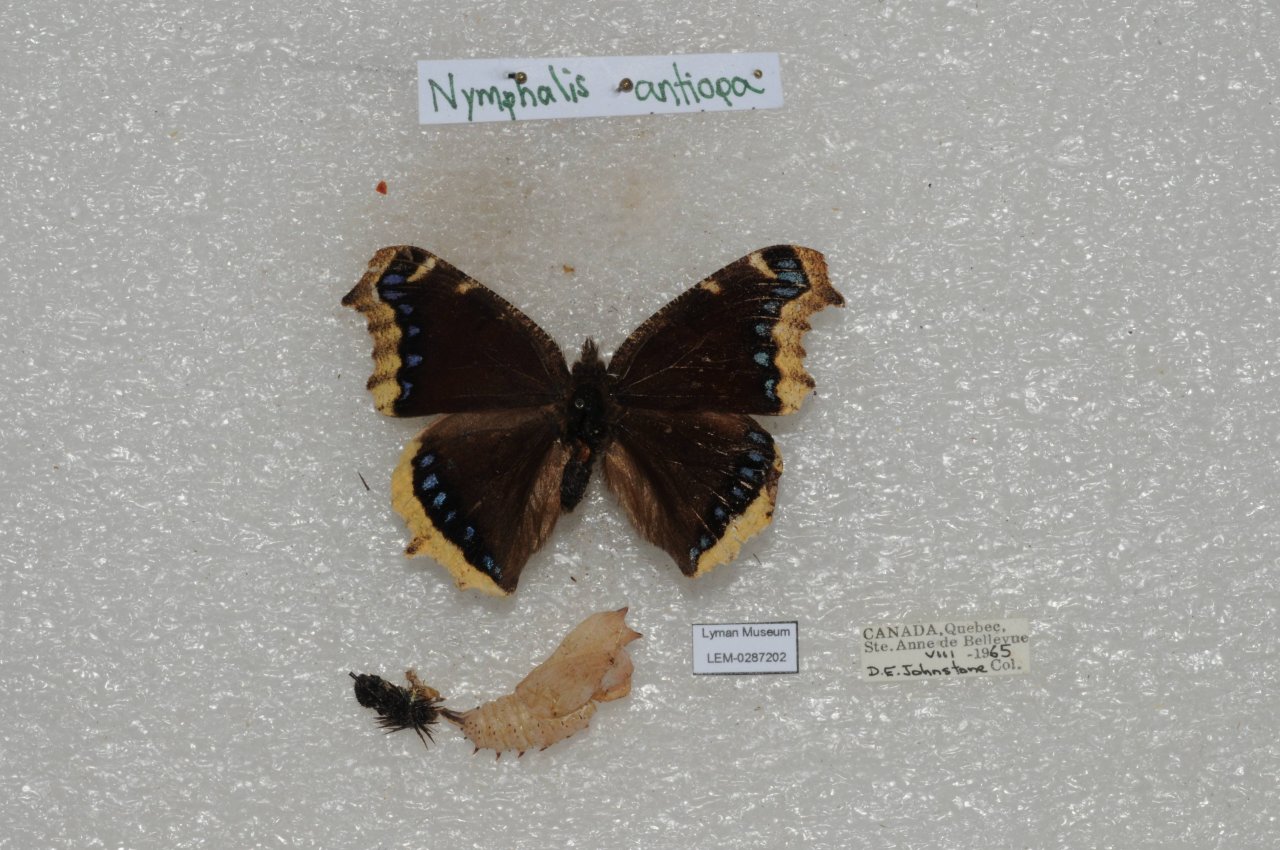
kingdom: Animalia
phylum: Arthropoda
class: Insecta
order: Lepidoptera
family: Nymphalidae
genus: Nymphalis
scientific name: Nymphalis antiopa
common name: Mourning Cloak
